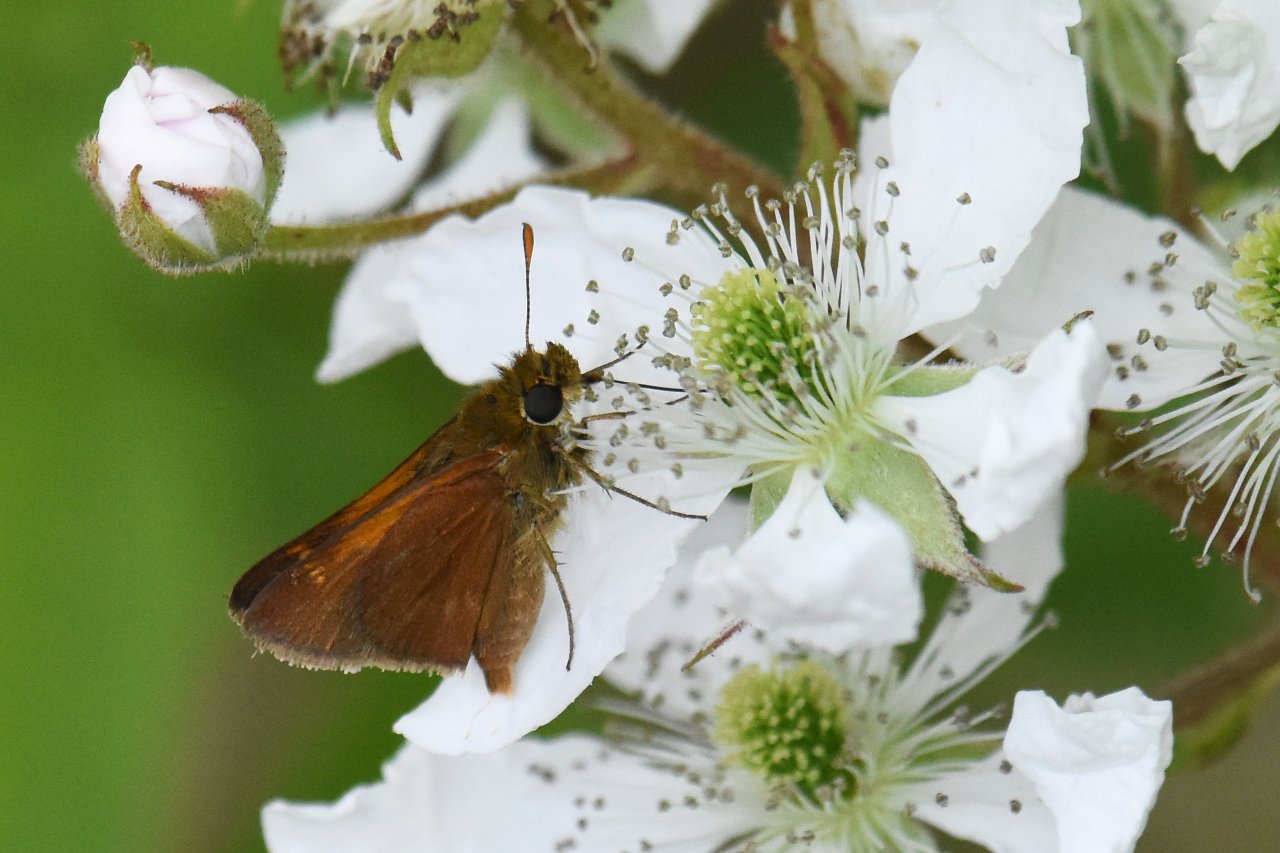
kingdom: Animalia
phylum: Arthropoda
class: Insecta
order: Lepidoptera
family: Hesperiidae
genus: Polites
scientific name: Polites themistocles
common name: Tawny-edged Skipper
